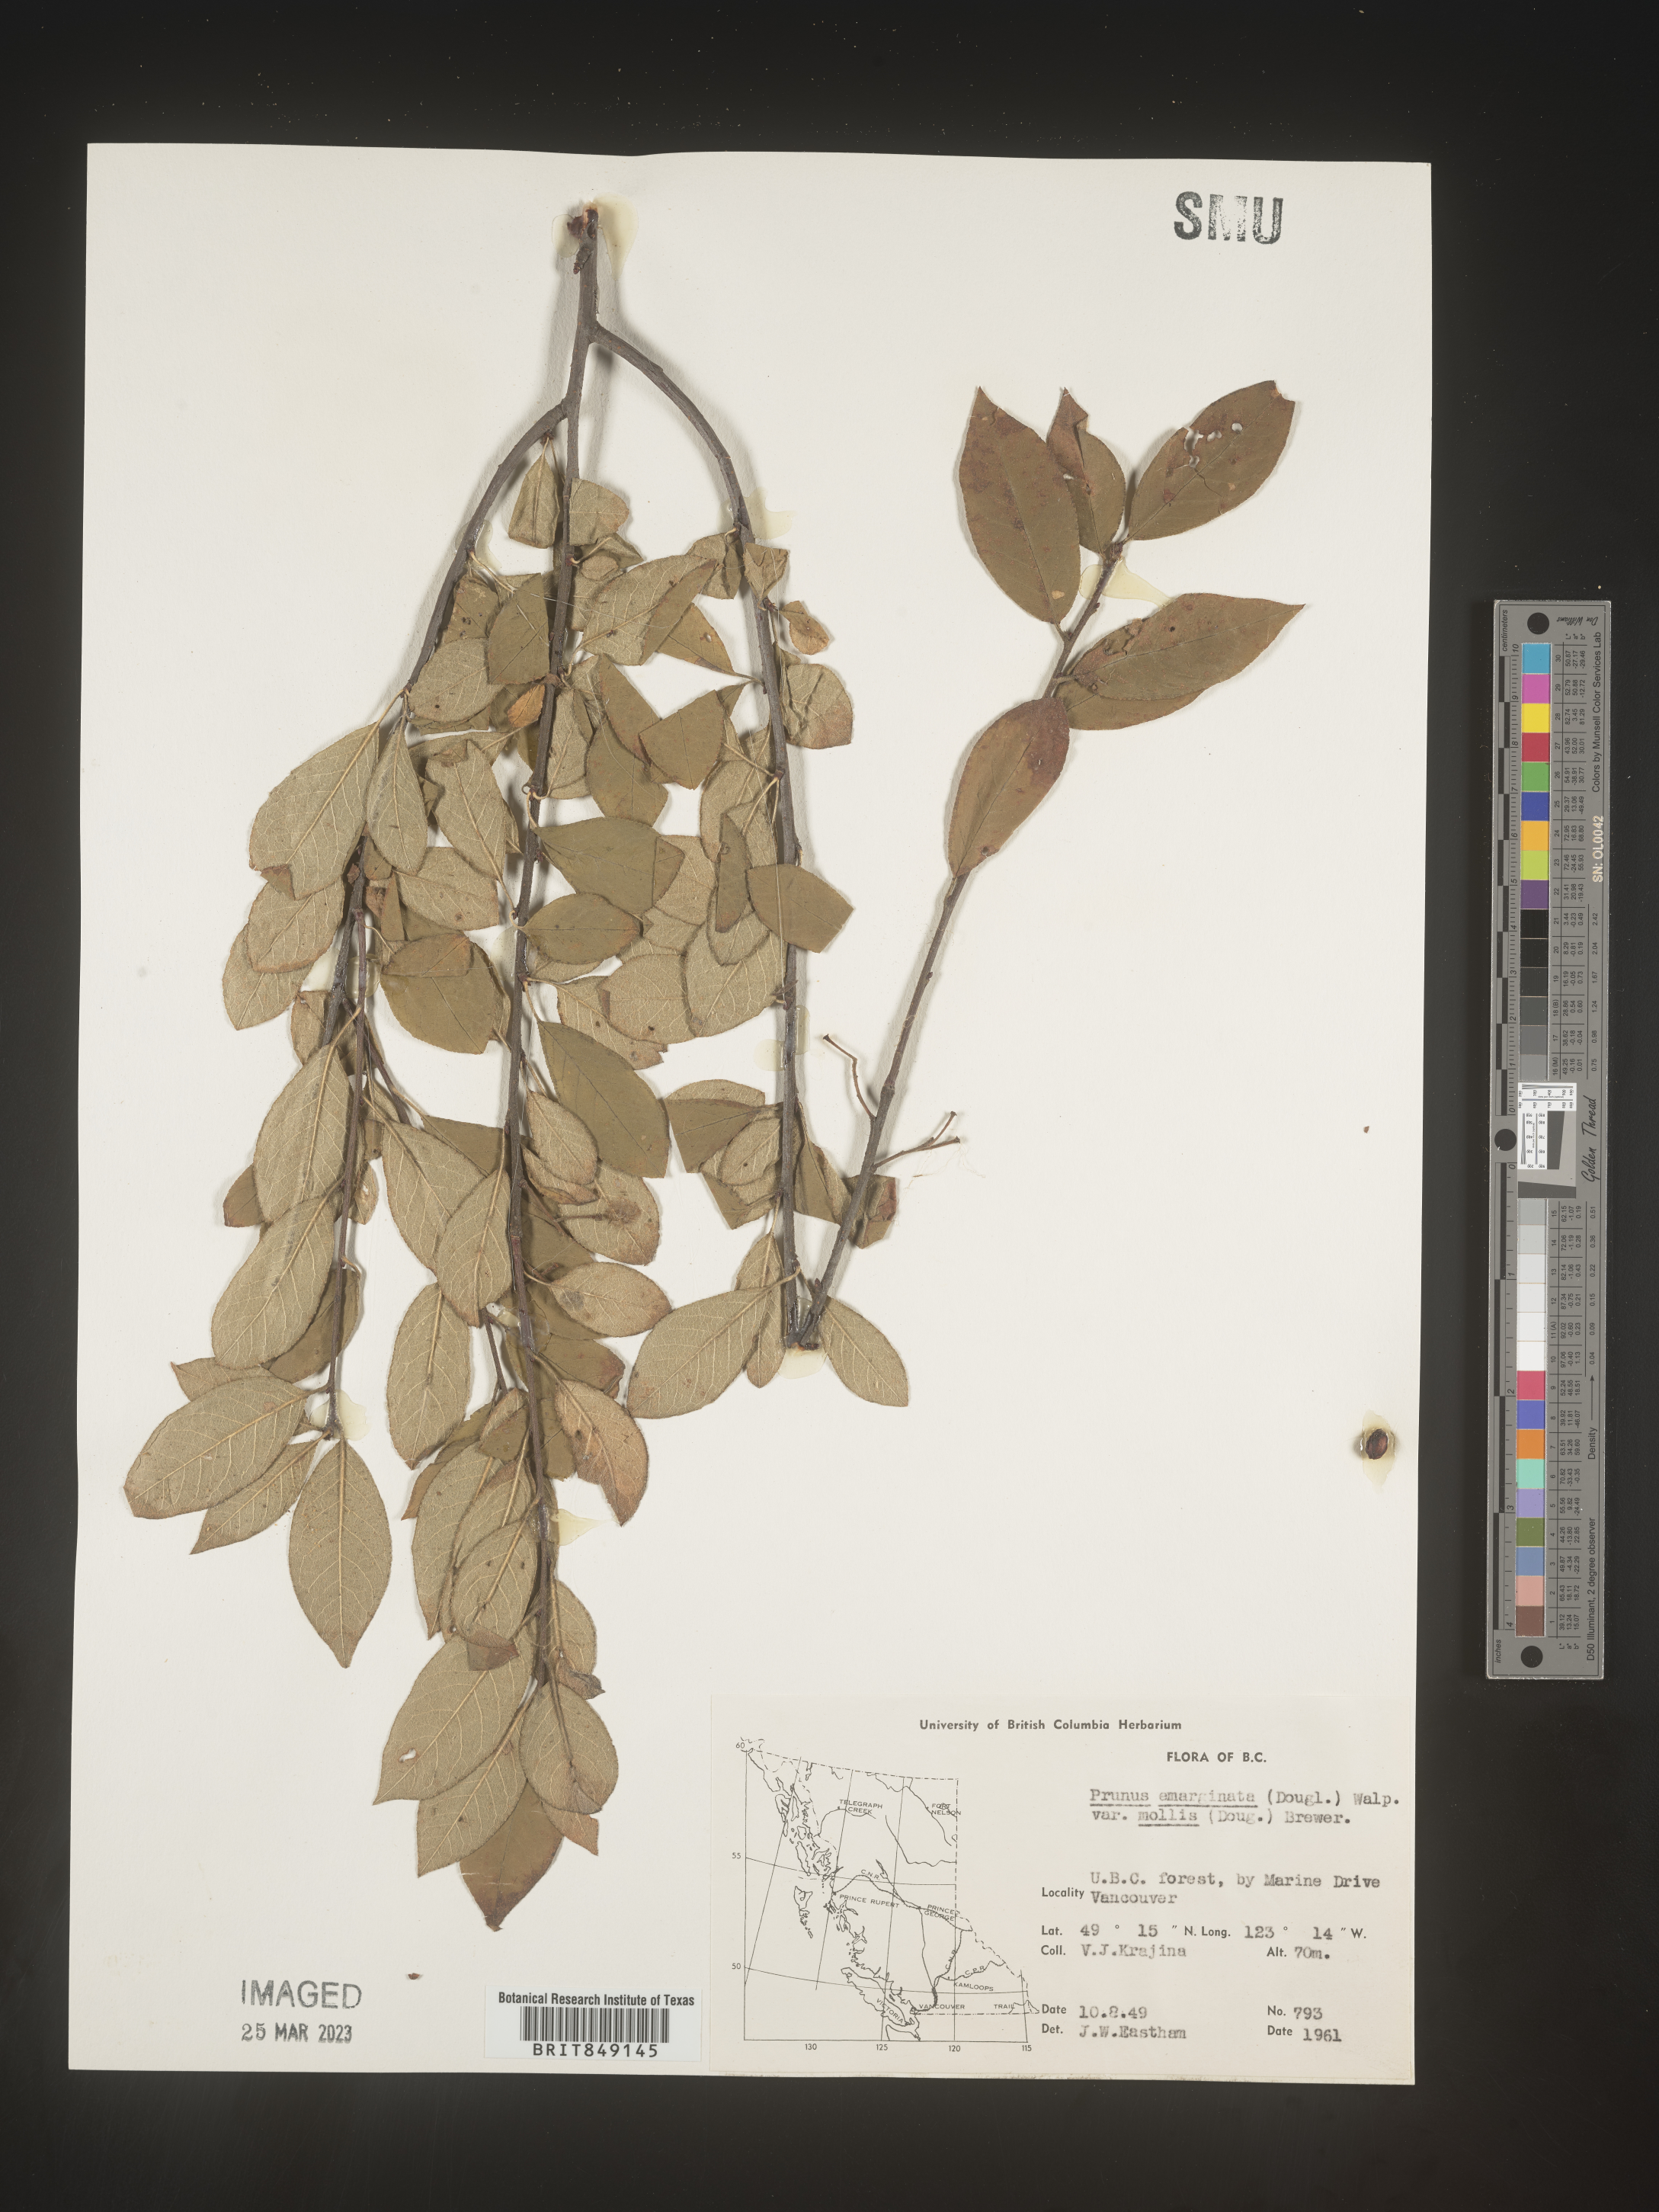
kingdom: Plantae
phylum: Tracheophyta
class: Magnoliopsida
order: Rosales
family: Rosaceae
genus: Prunus
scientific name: Prunus emarginata
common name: Bitter cherry
